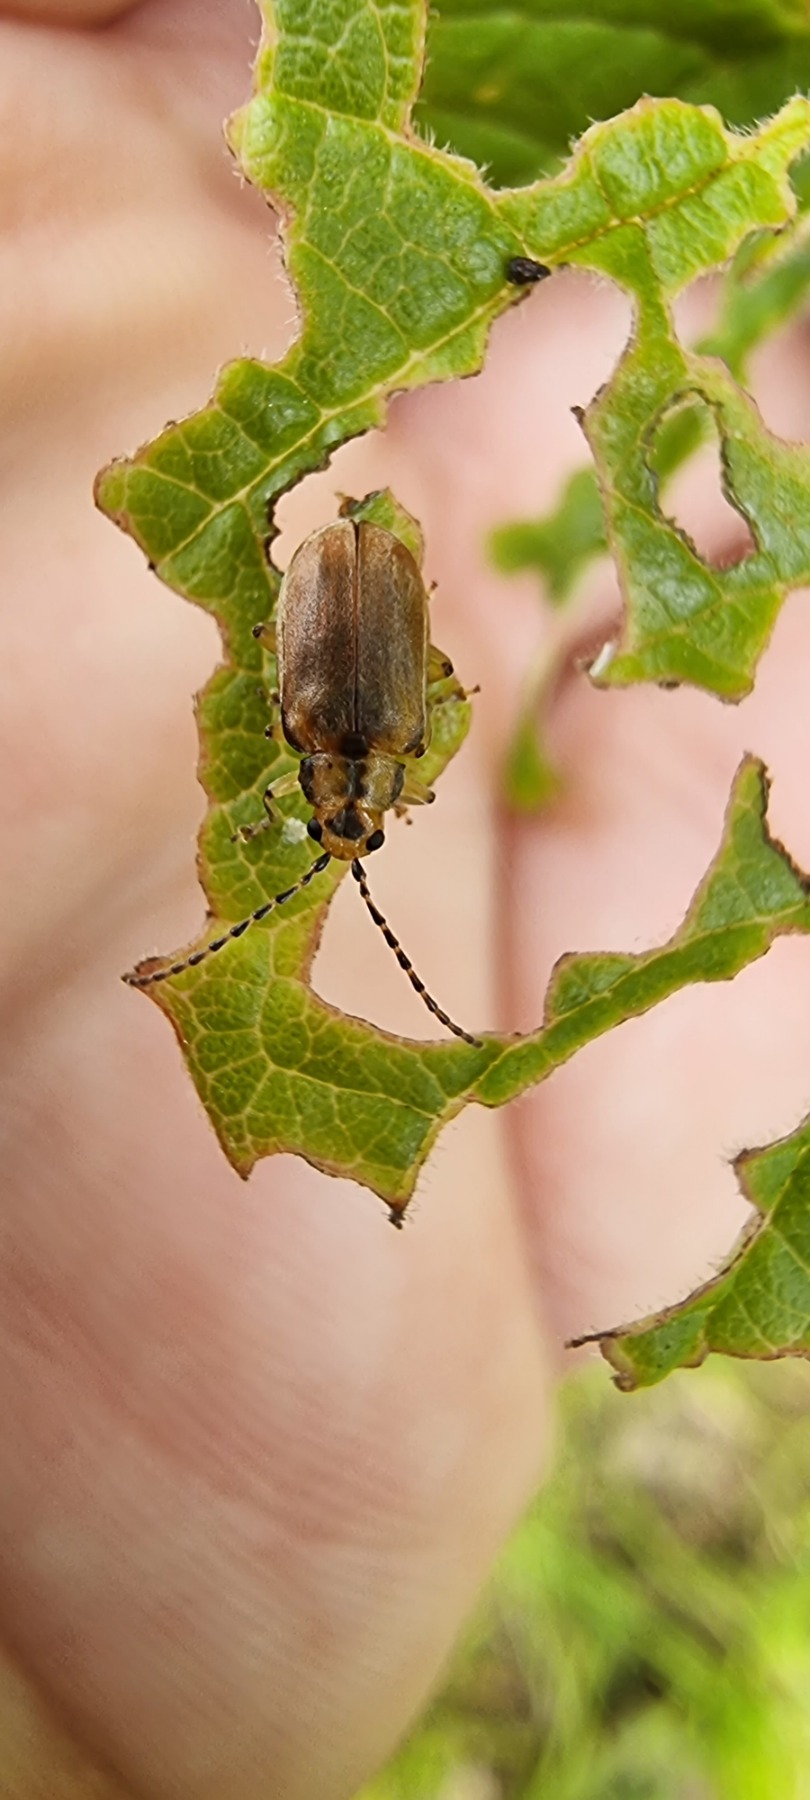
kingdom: Animalia
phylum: Arthropoda
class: Insecta
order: Coleoptera
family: Chrysomelidae
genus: Pyrrhalta
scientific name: Pyrrhalta viburni
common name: Kvalkvedbladbille
